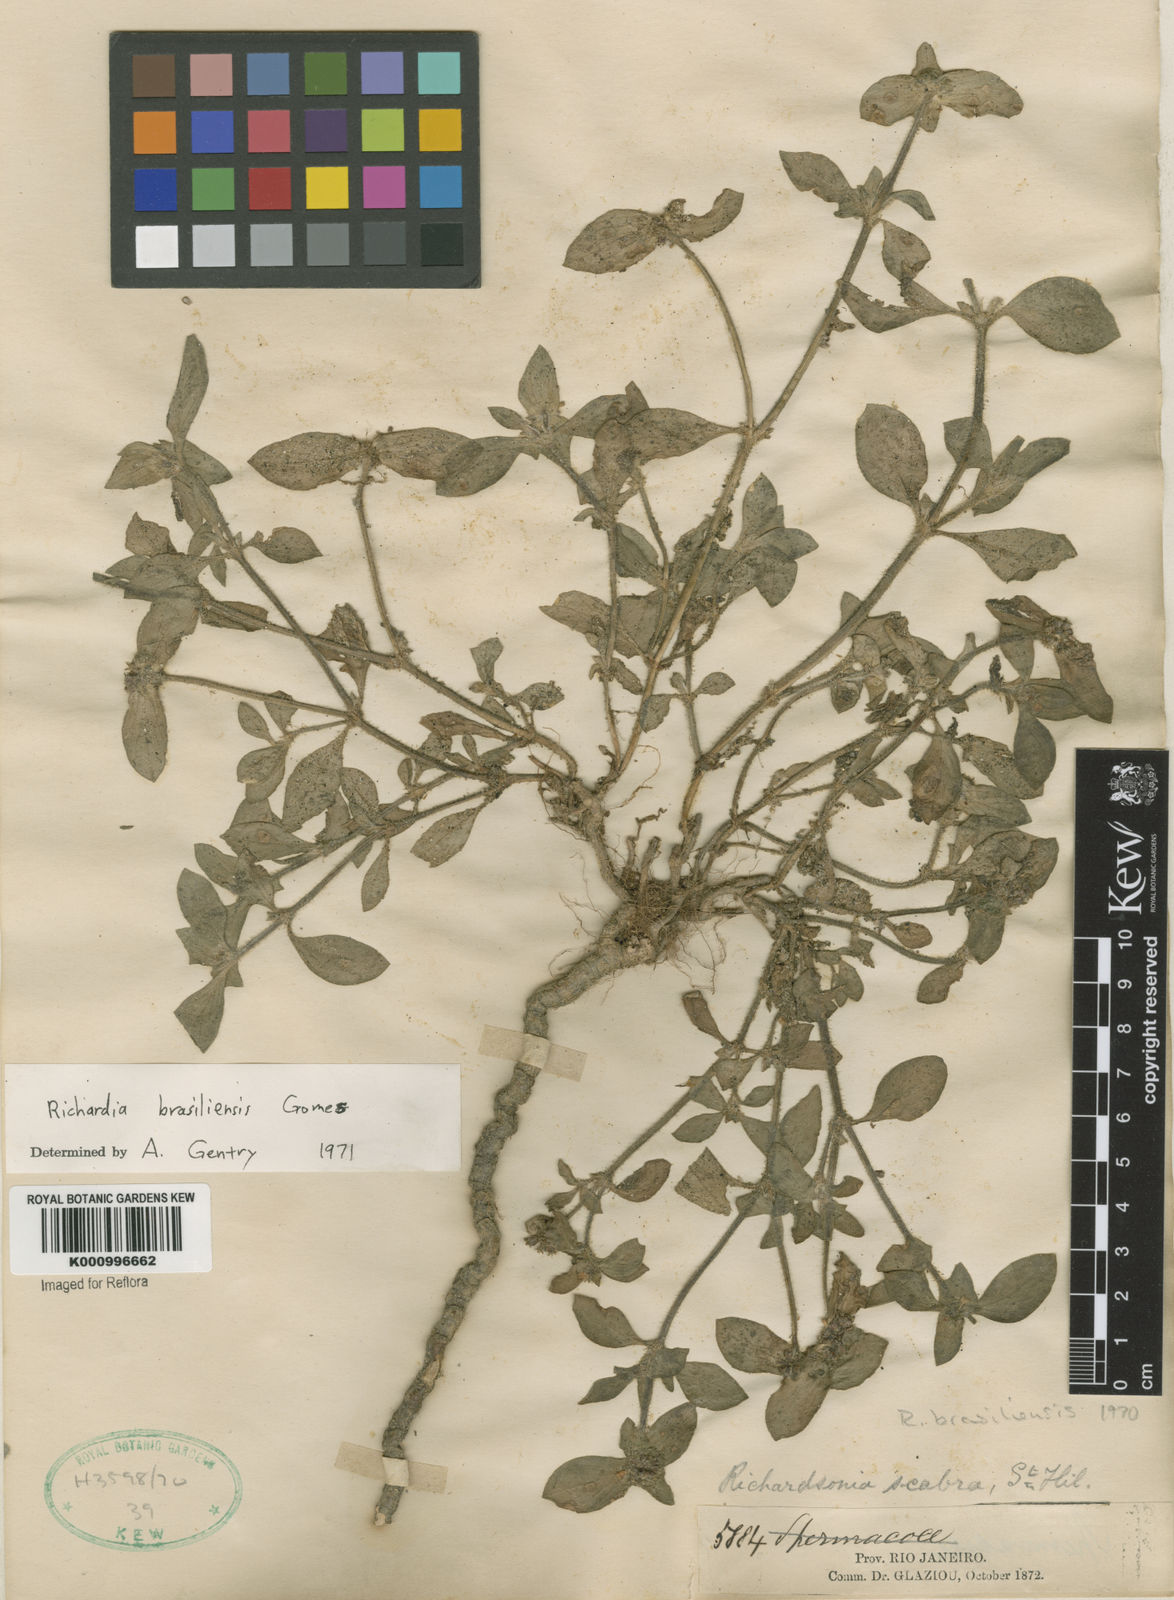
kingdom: Plantae
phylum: Tracheophyta
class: Magnoliopsida
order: Gentianales
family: Rubiaceae
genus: Richardia
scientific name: Richardia brasiliensis
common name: Tropical mexican clover
